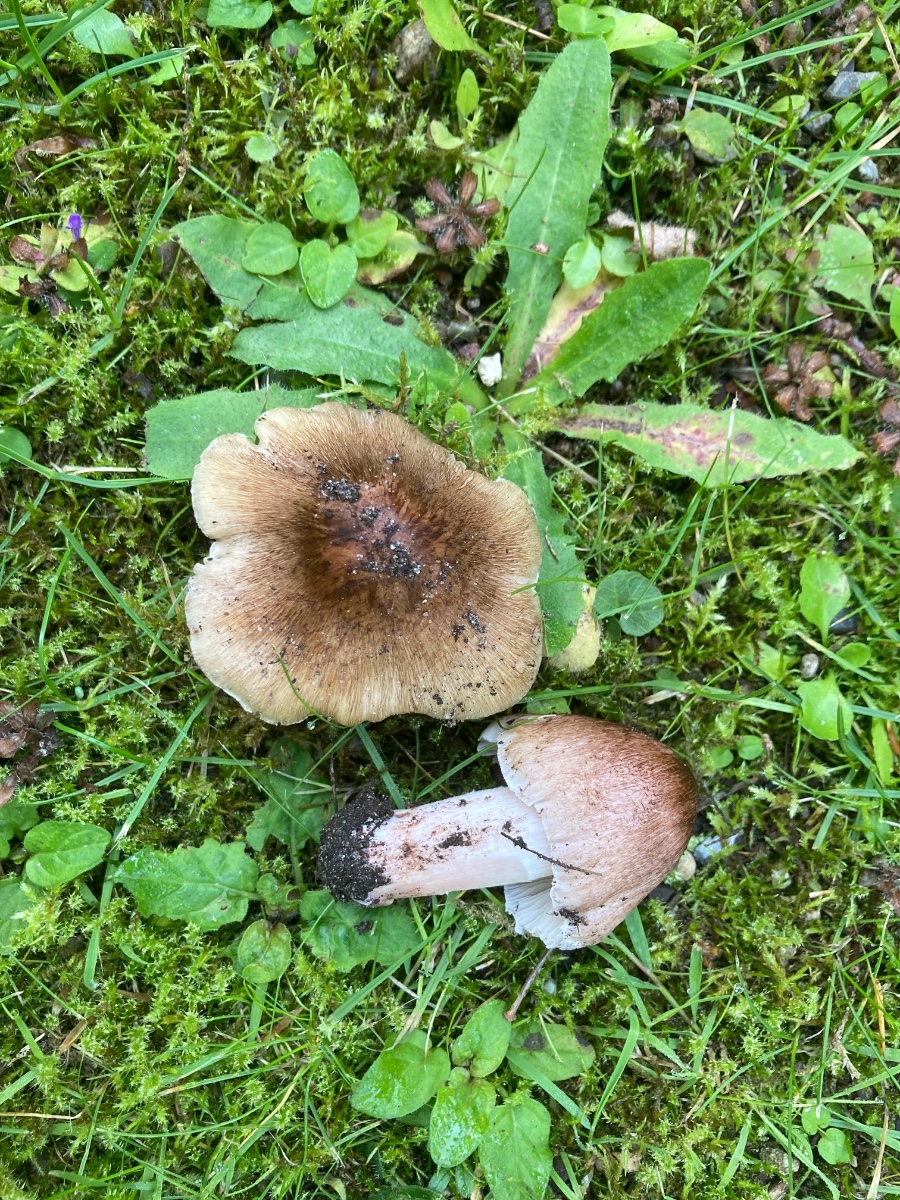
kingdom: Fungi
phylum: Basidiomycota
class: Agaricomycetes
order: Agaricales
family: Inocybaceae
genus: Inosperma
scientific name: Inosperma adaequatum
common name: vinrød trævlhat
